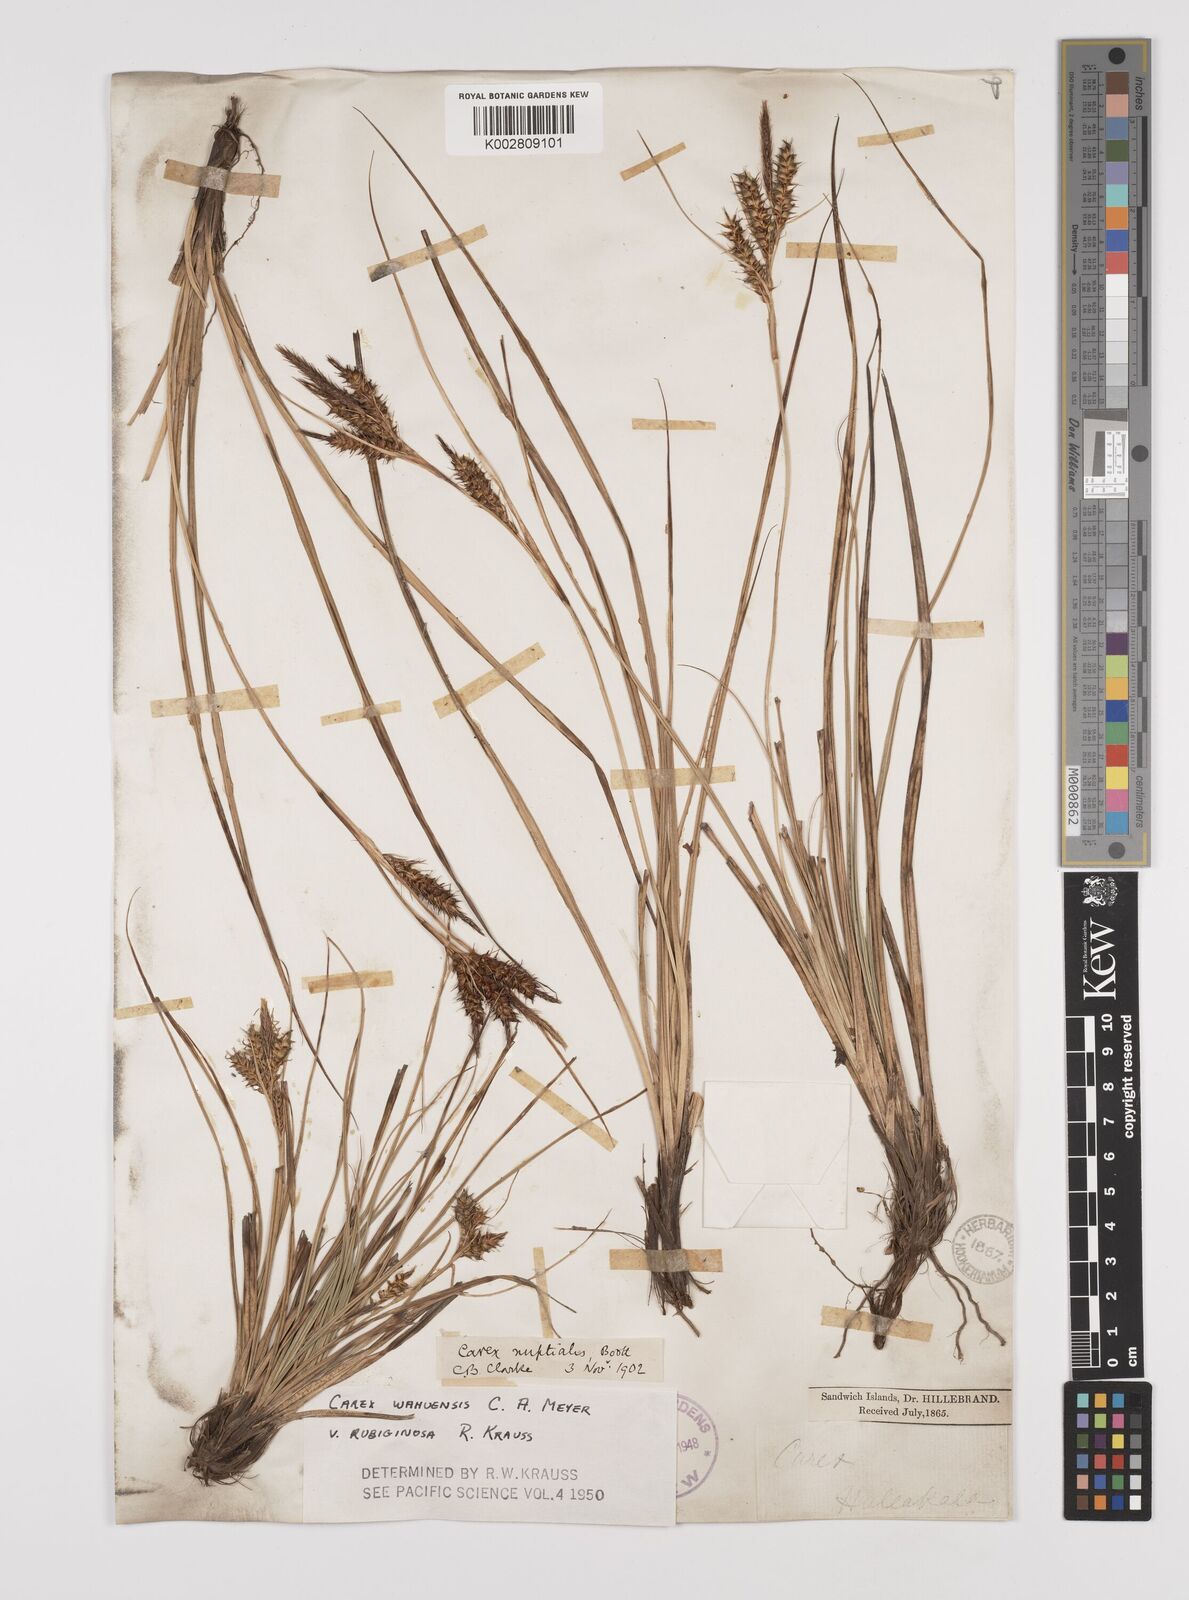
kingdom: Plantae
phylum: Tracheophyta
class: Liliopsida
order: Poales
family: Cyperaceae
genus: Carex
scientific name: Carex wahuensis
